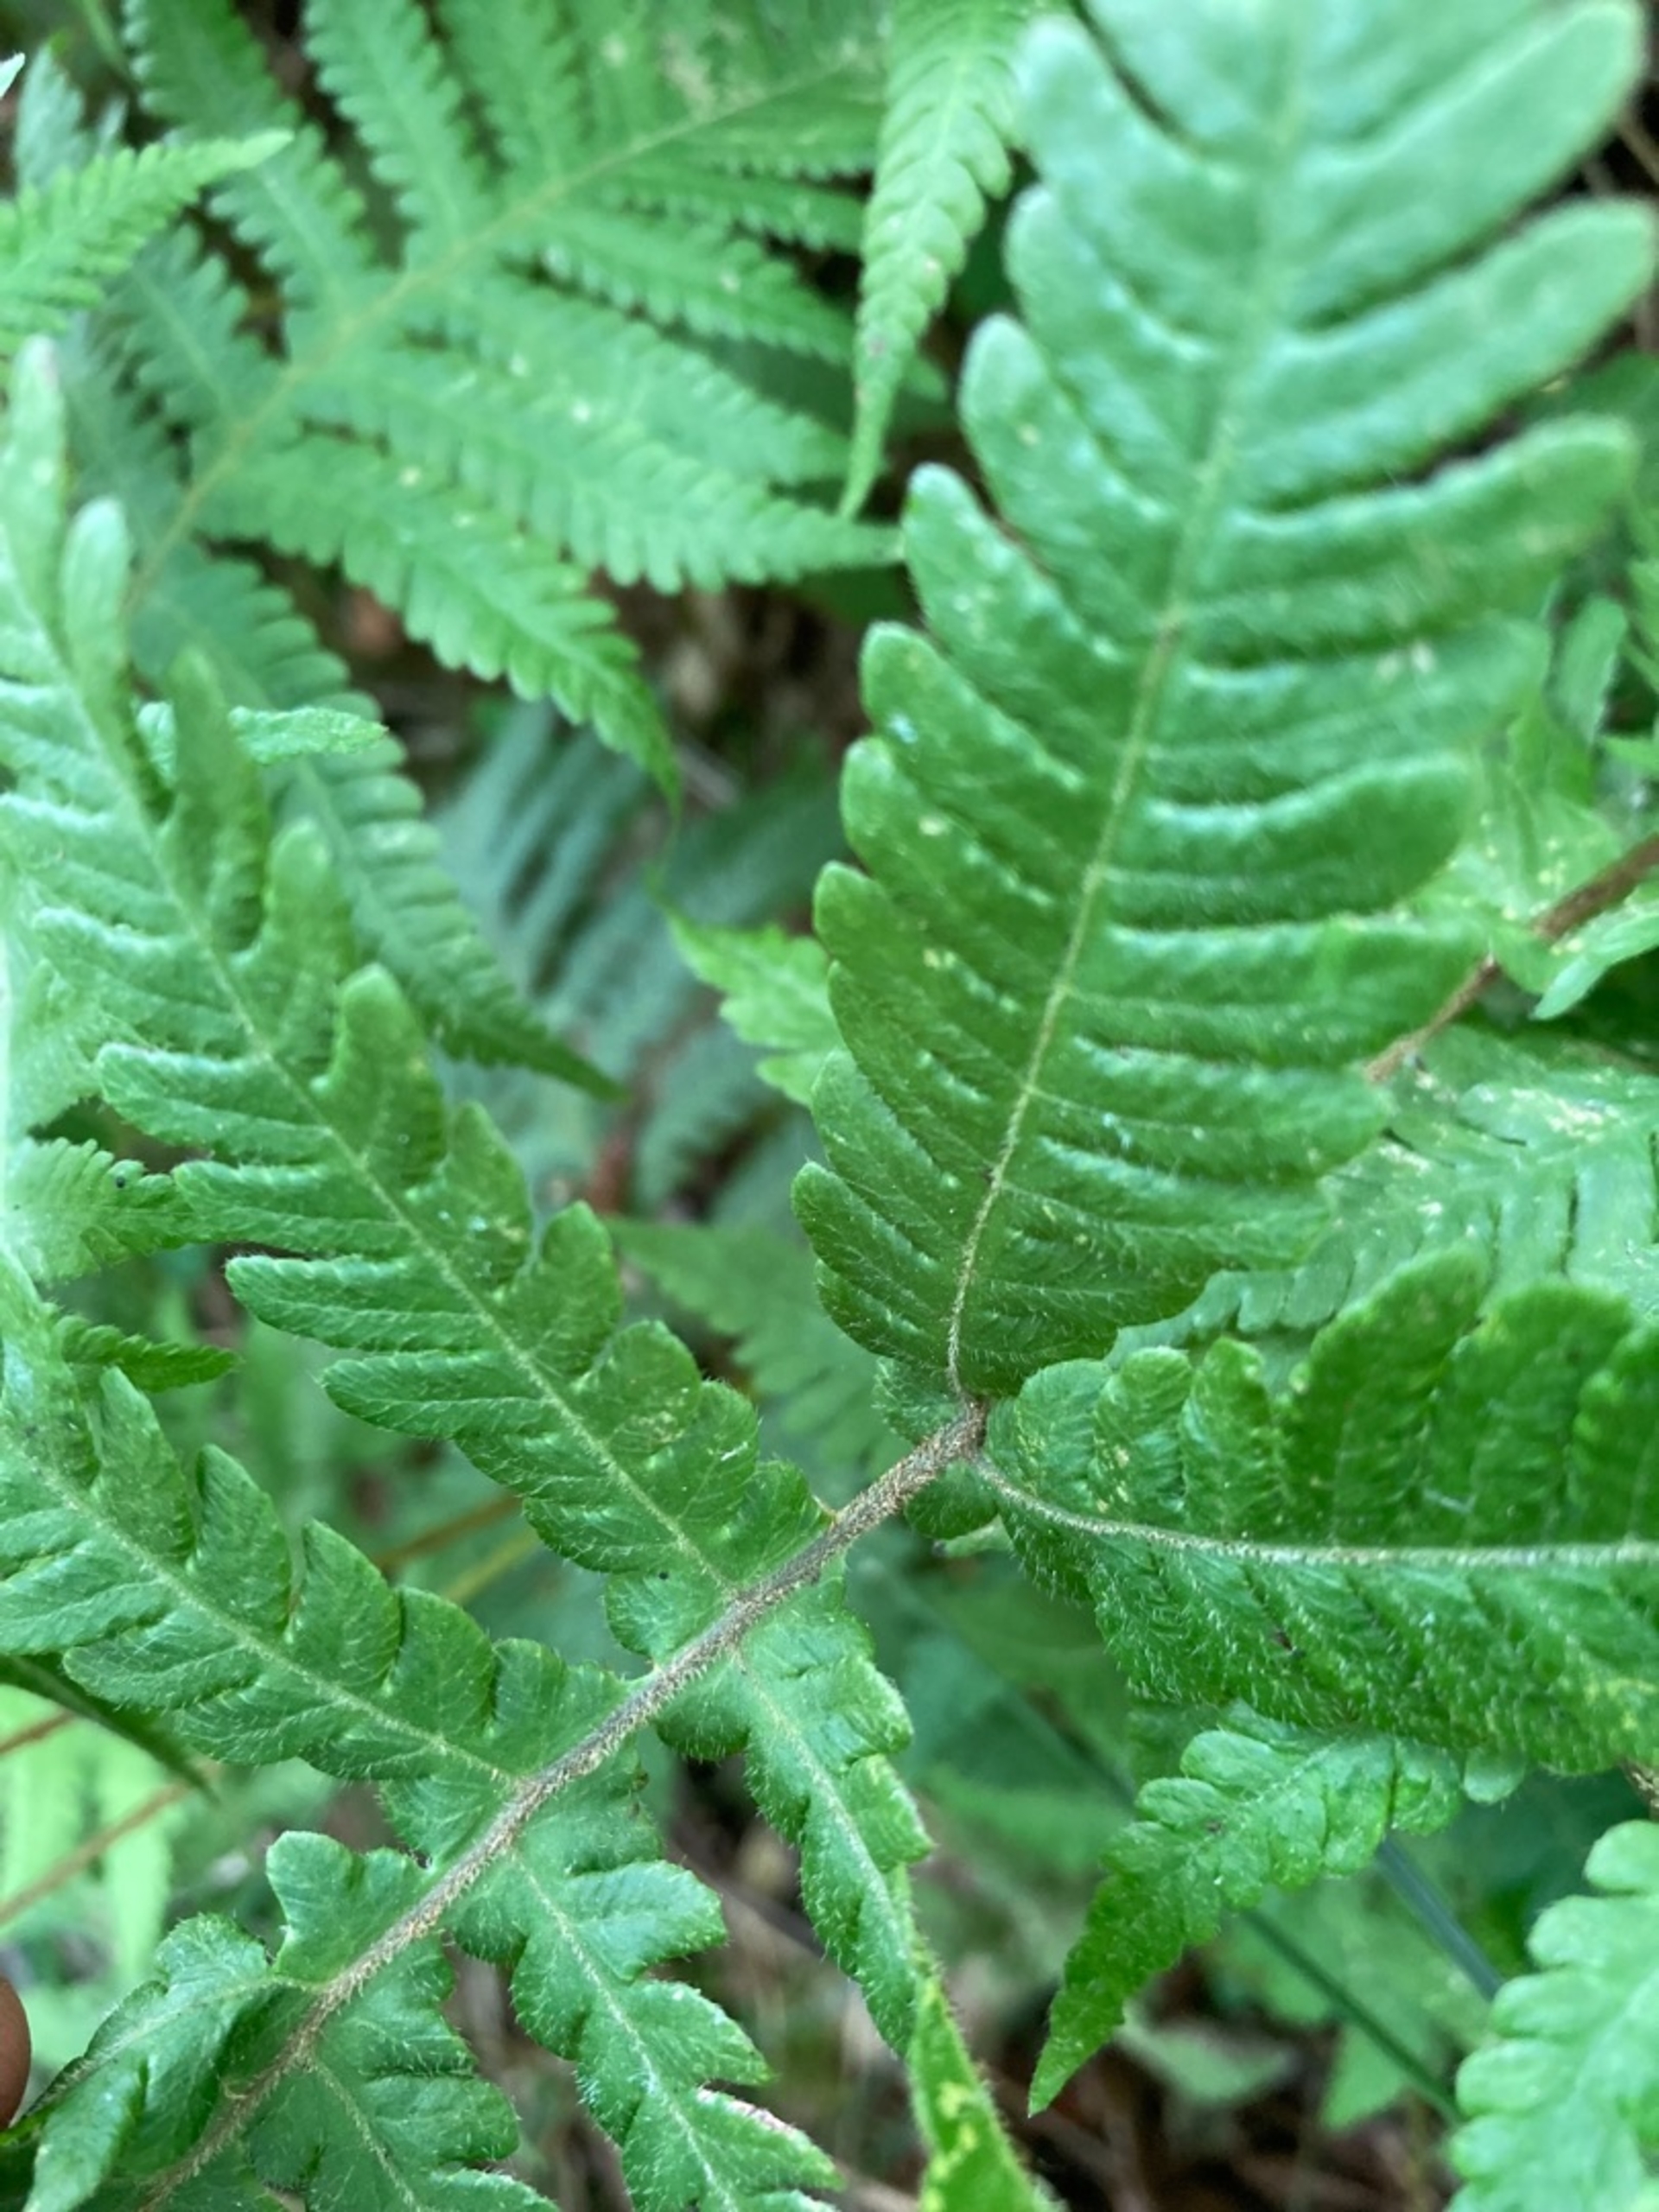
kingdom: Plantae
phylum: Tracheophyta
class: Polypodiopsida
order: Polypodiales
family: Thelypteridaceae
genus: Phegopteris
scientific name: Phegopteris connectilis
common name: Dunet egebregne
